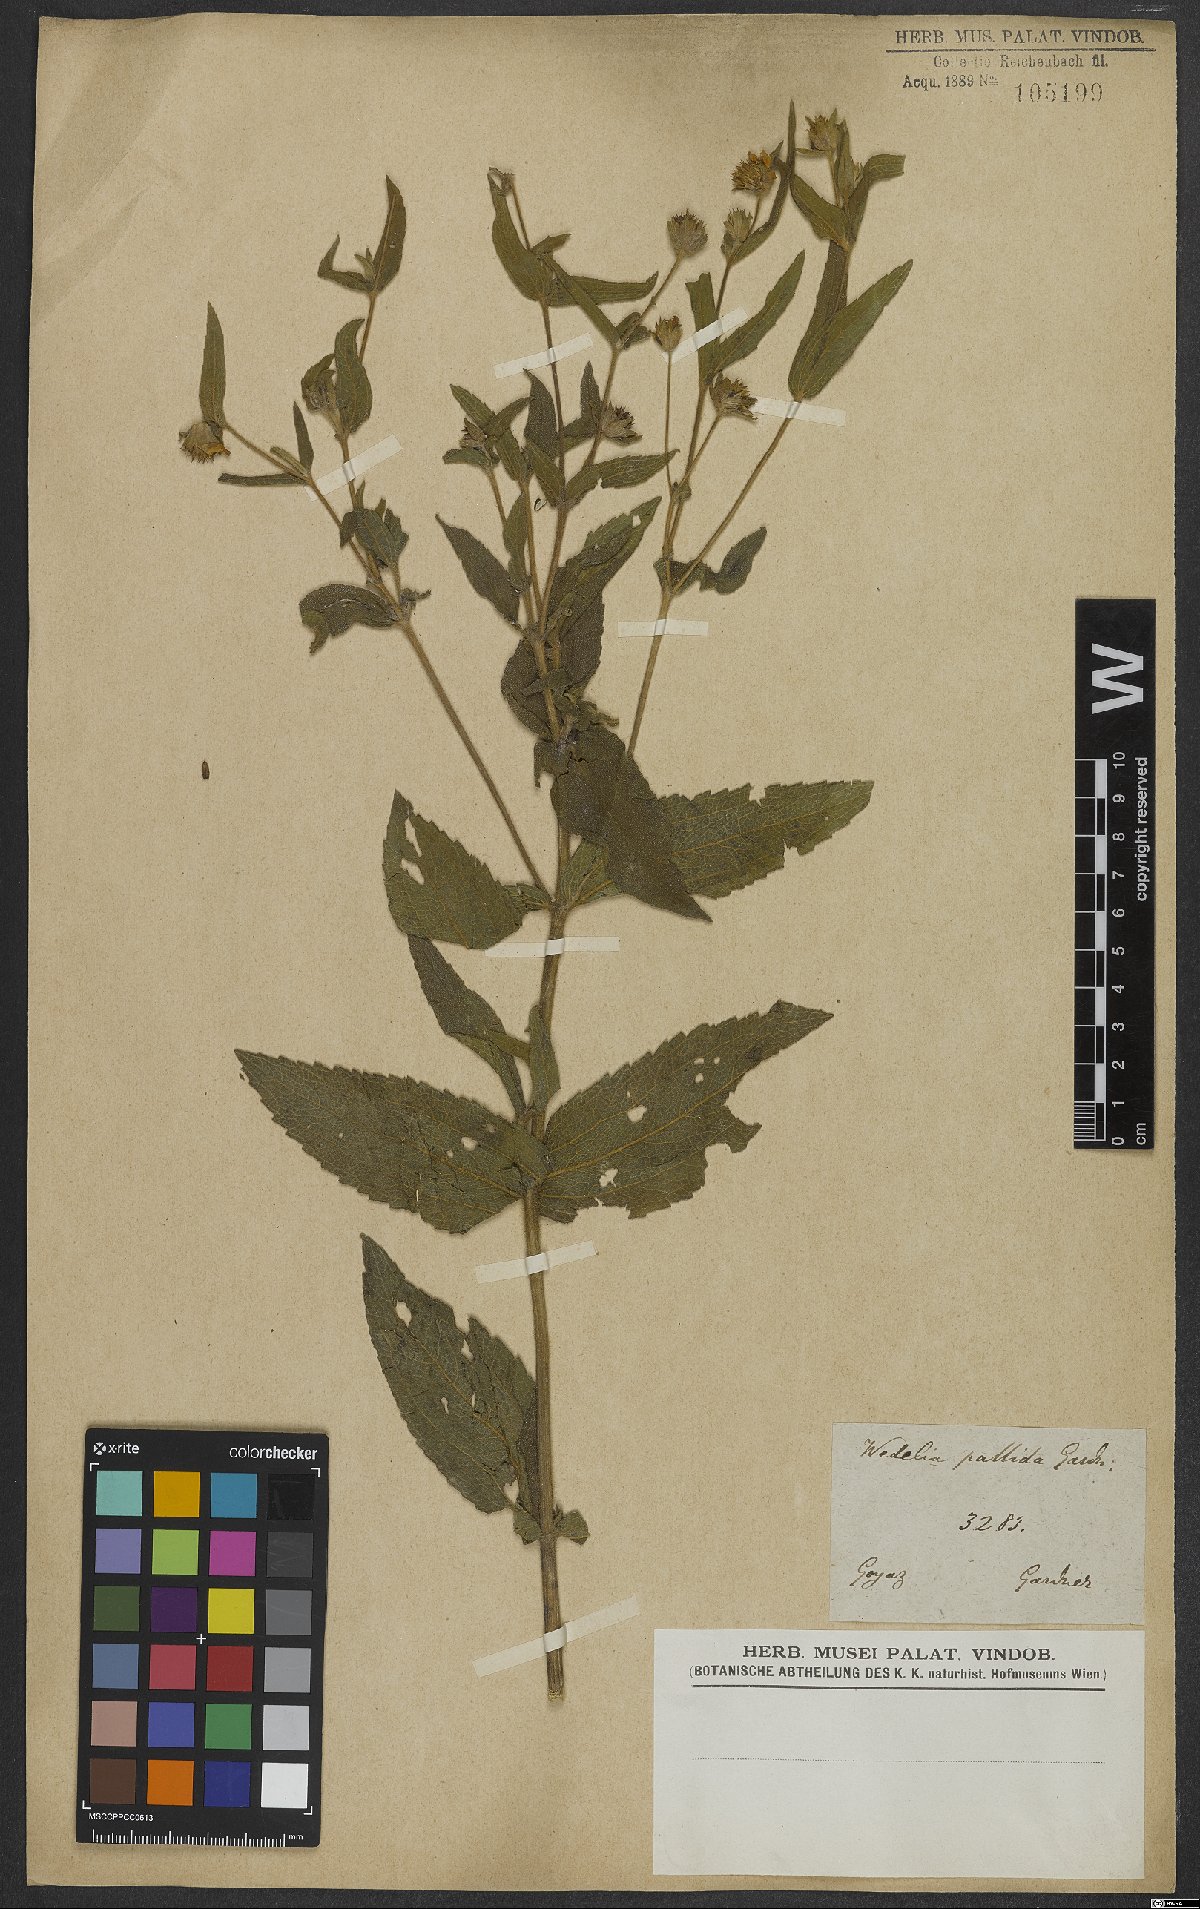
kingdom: Plantae
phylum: Tracheophyta
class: Magnoliopsida
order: Asterales
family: Asteraceae
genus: Wedelia
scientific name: Wedelia macrodonta
